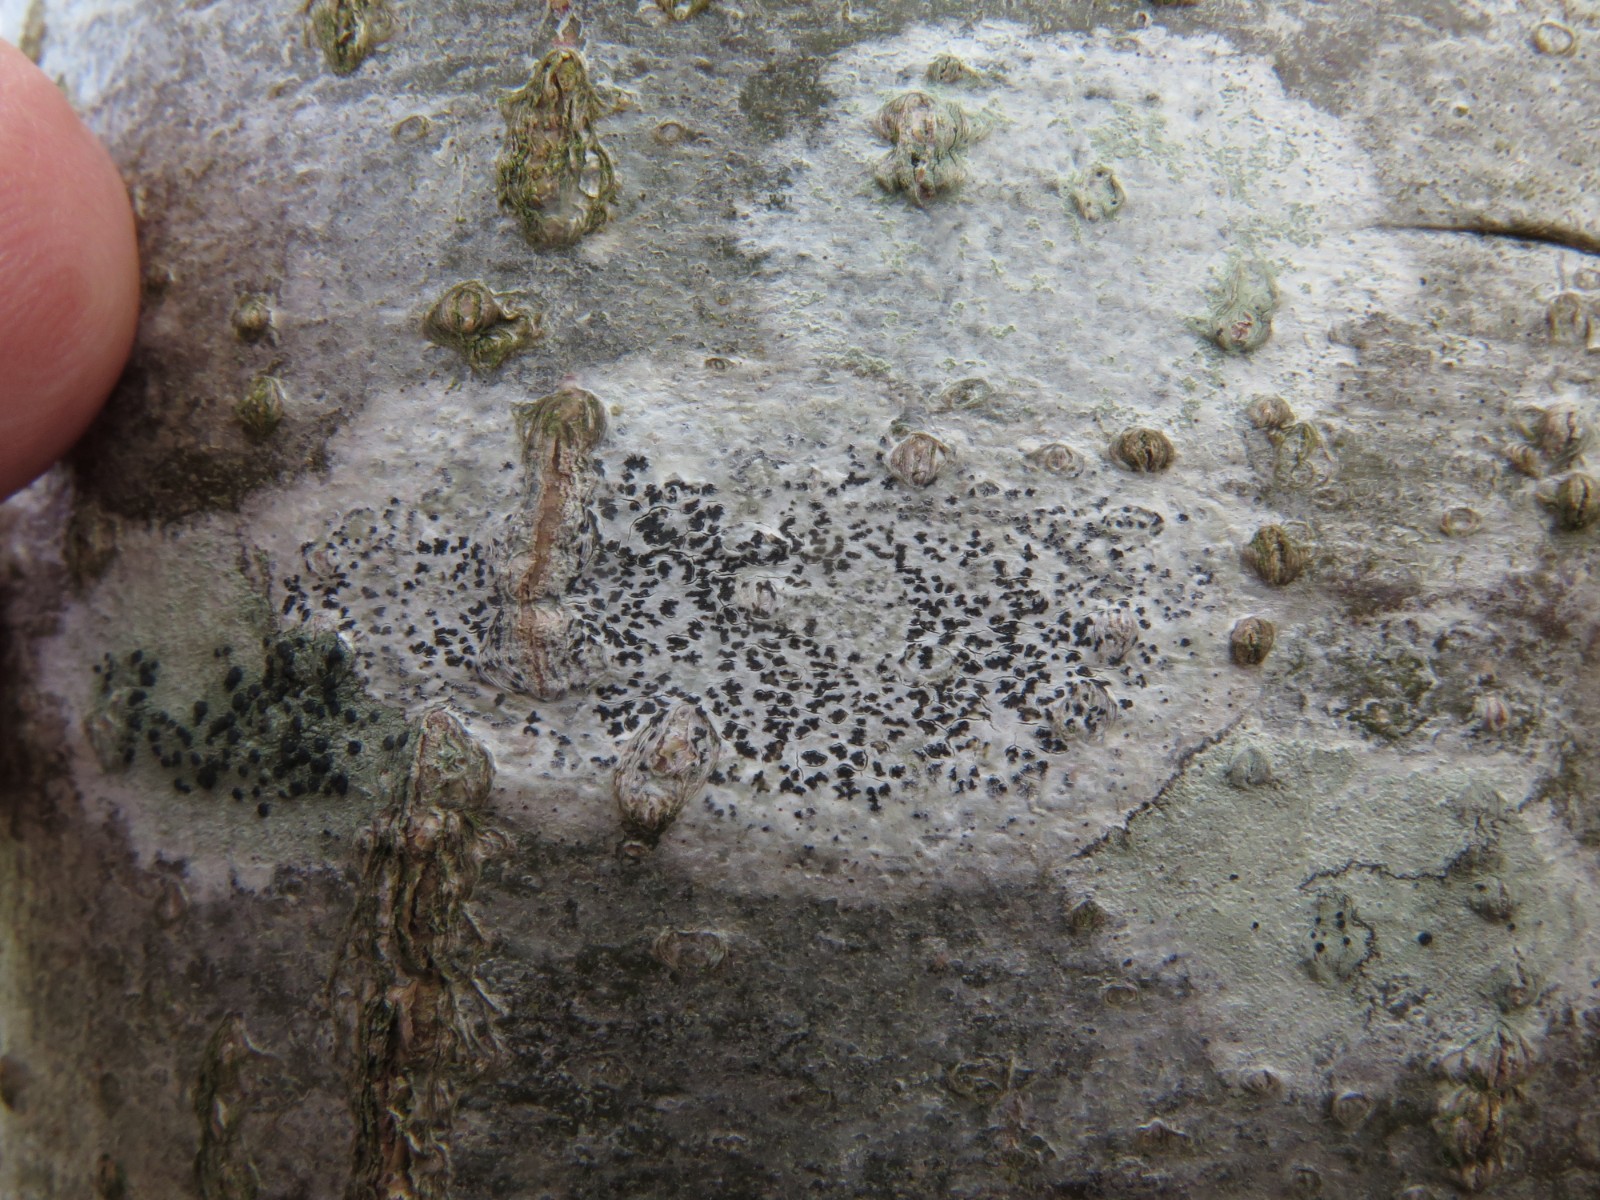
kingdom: Fungi
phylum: Ascomycota
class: Arthoniomycetes
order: Arthoniales
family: Arthoniaceae
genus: Arthonia
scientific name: Arthonia radiata
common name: stjerne-pletlav
